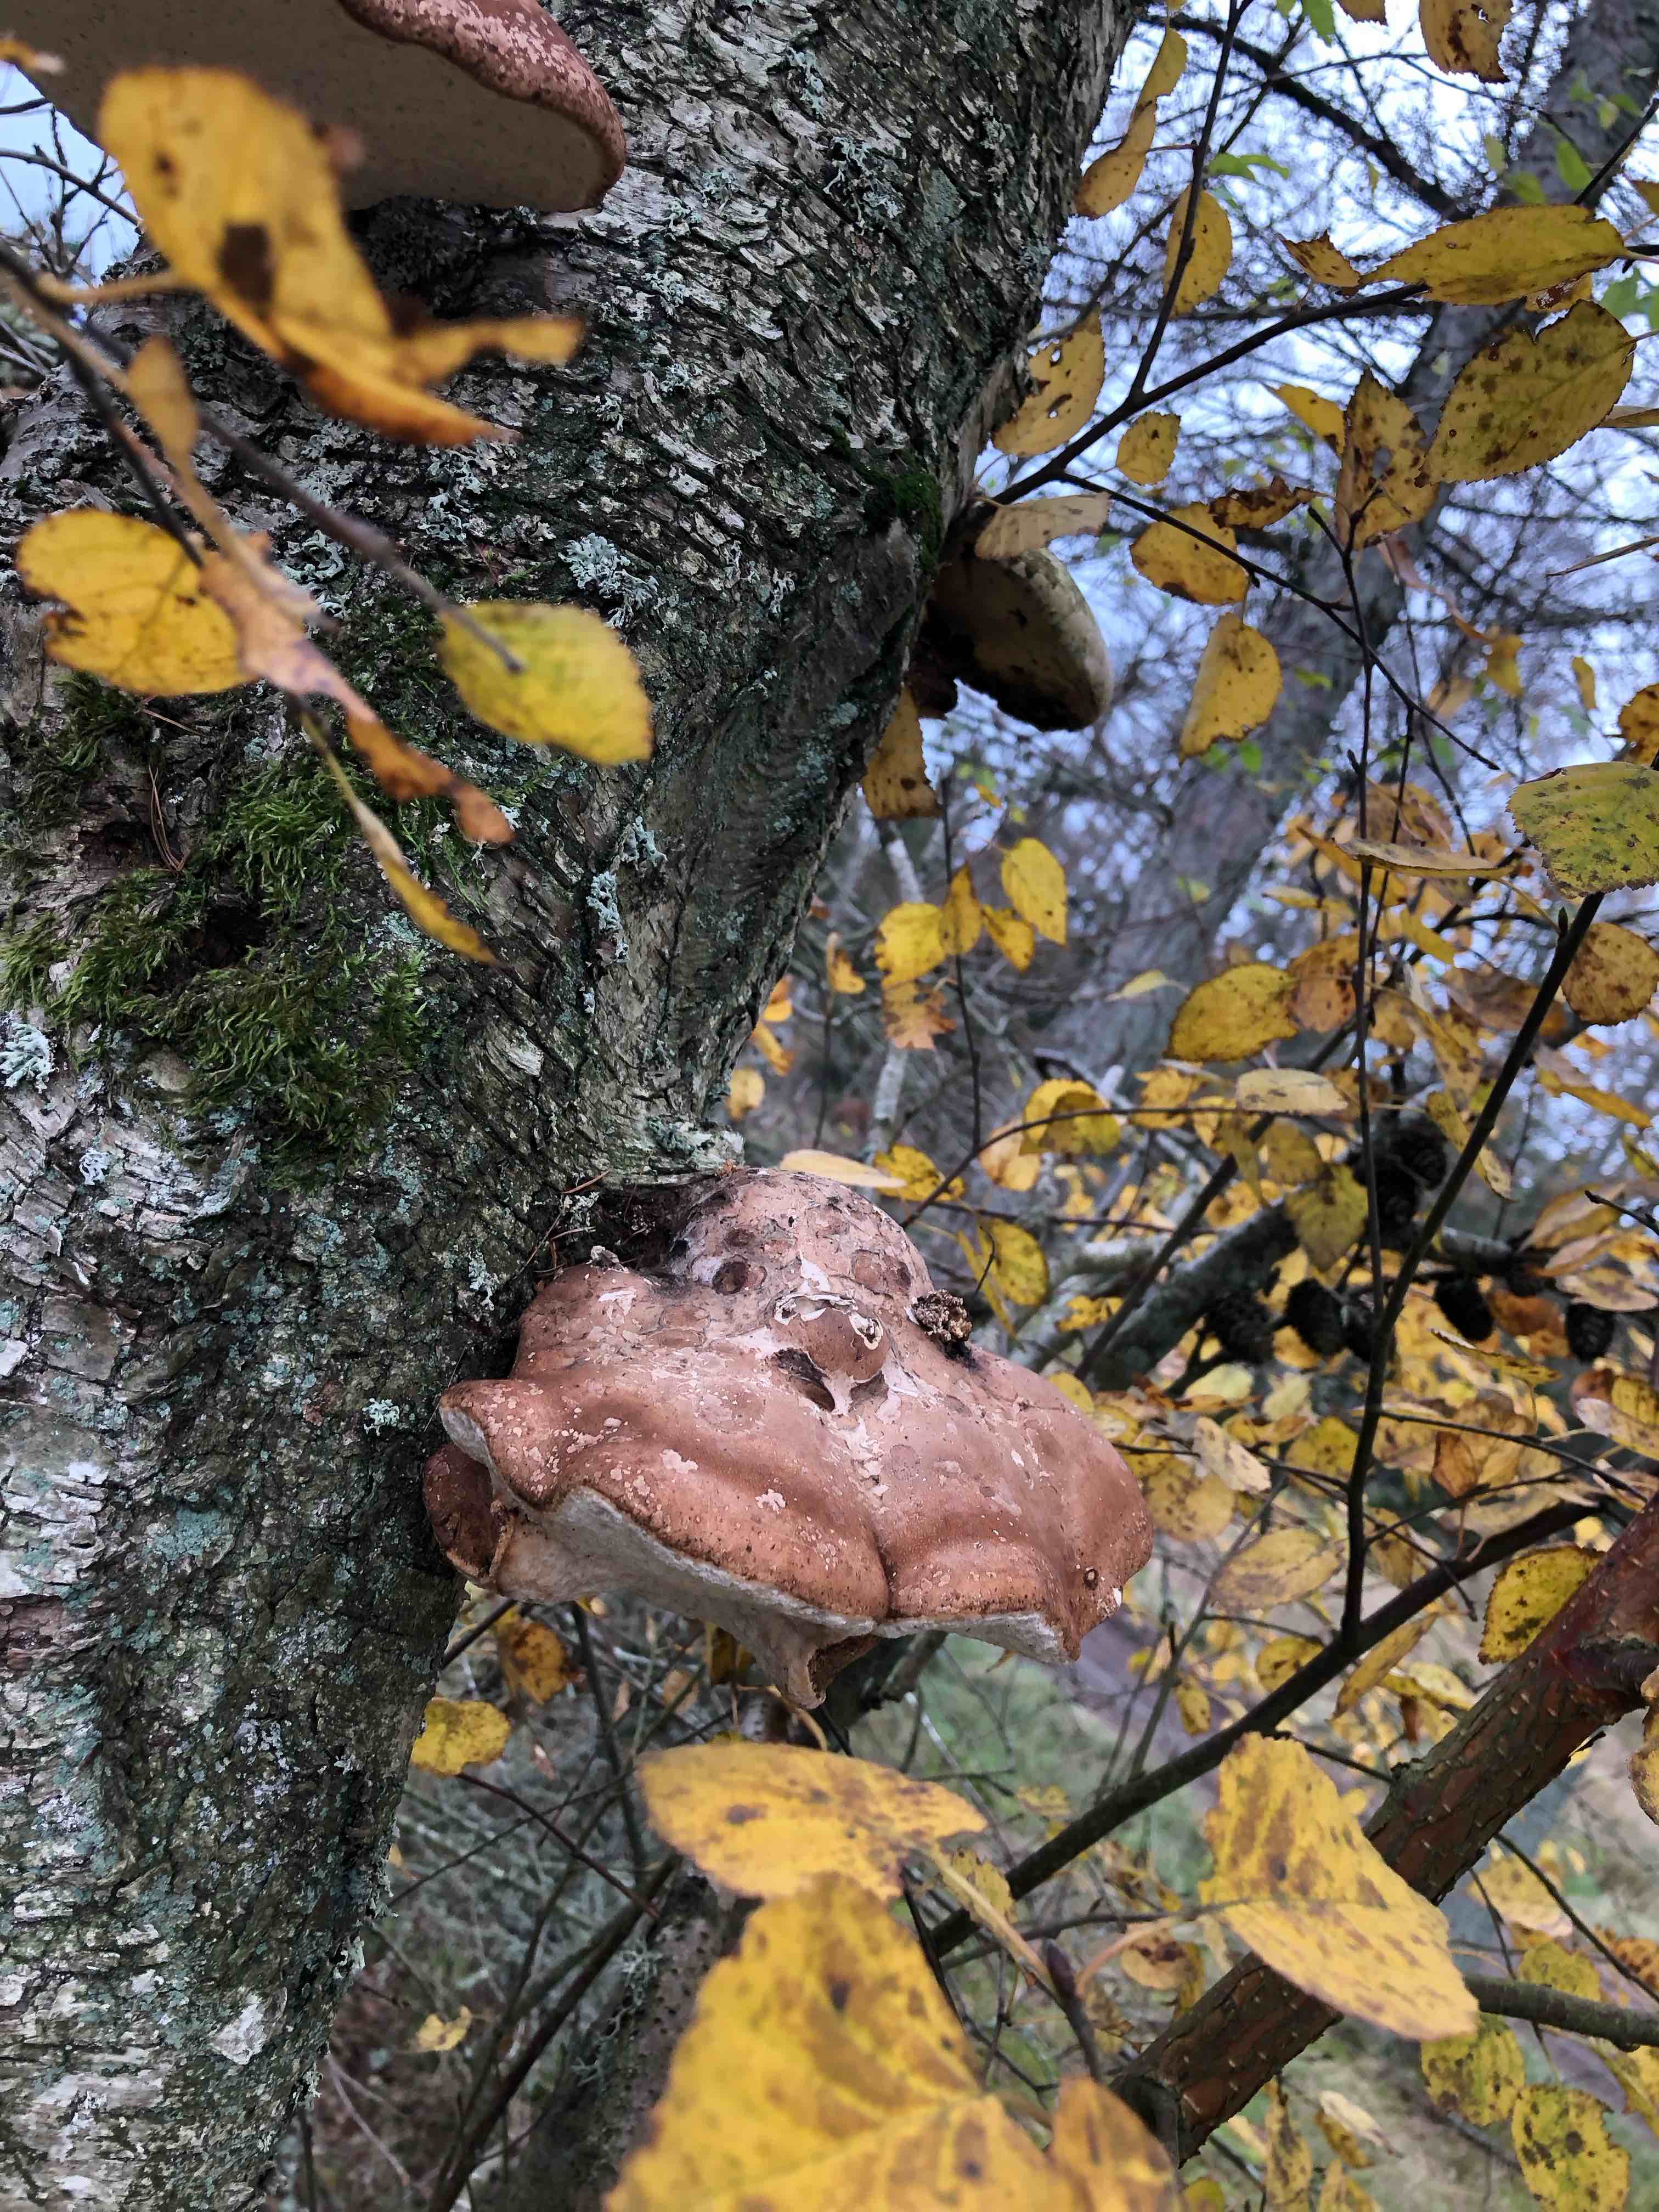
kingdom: Fungi
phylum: Basidiomycota
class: Agaricomycetes
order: Polyporales
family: Fomitopsidaceae
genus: Fomitopsis
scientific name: Fomitopsis betulina
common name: birkeporesvamp
